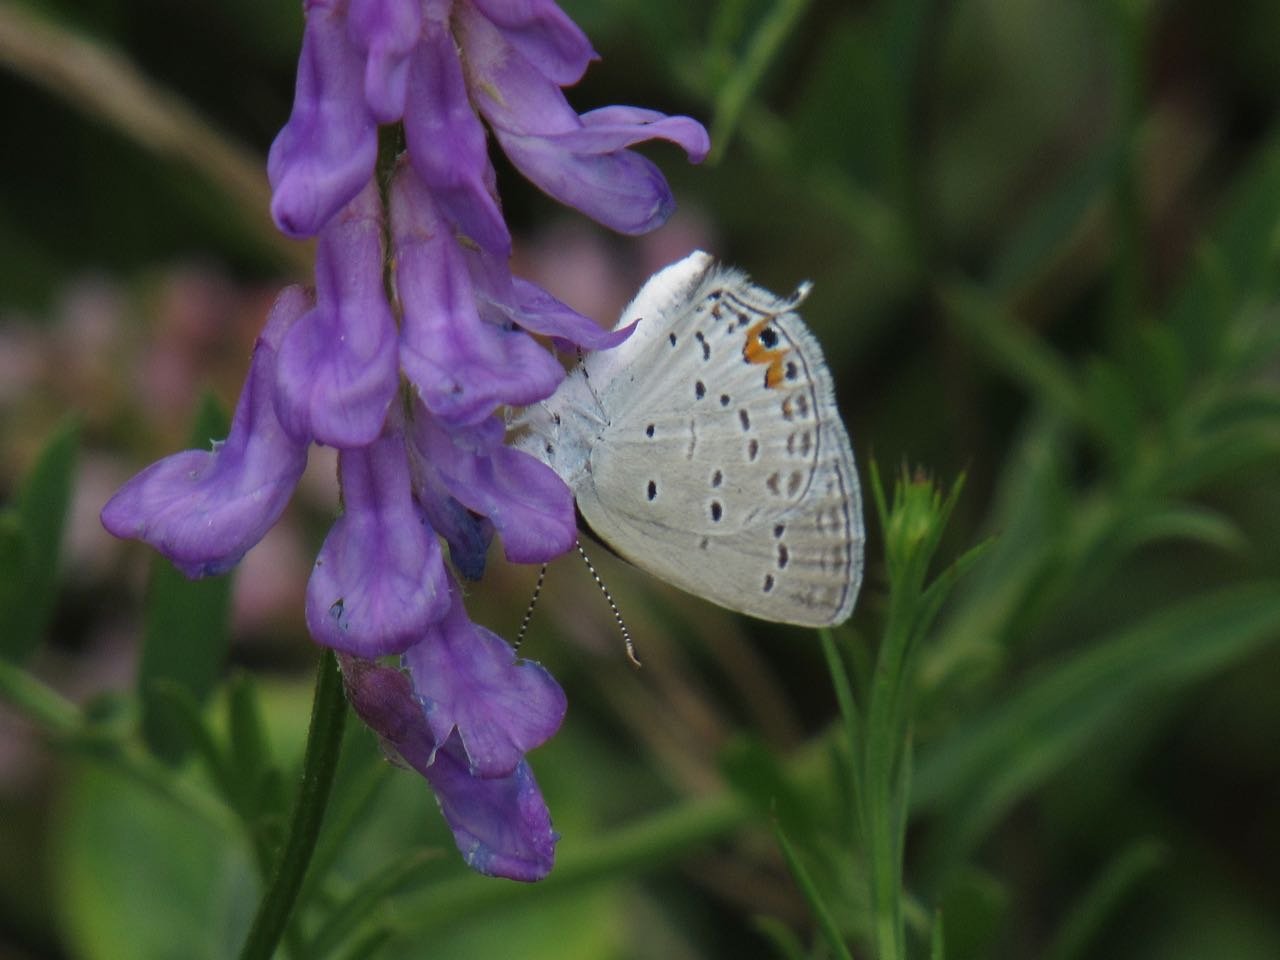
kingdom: Animalia
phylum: Arthropoda
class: Insecta
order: Lepidoptera
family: Lycaenidae
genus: Elkalyce
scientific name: Elkalyce comyntas
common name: Eastern Tailed-Blue
